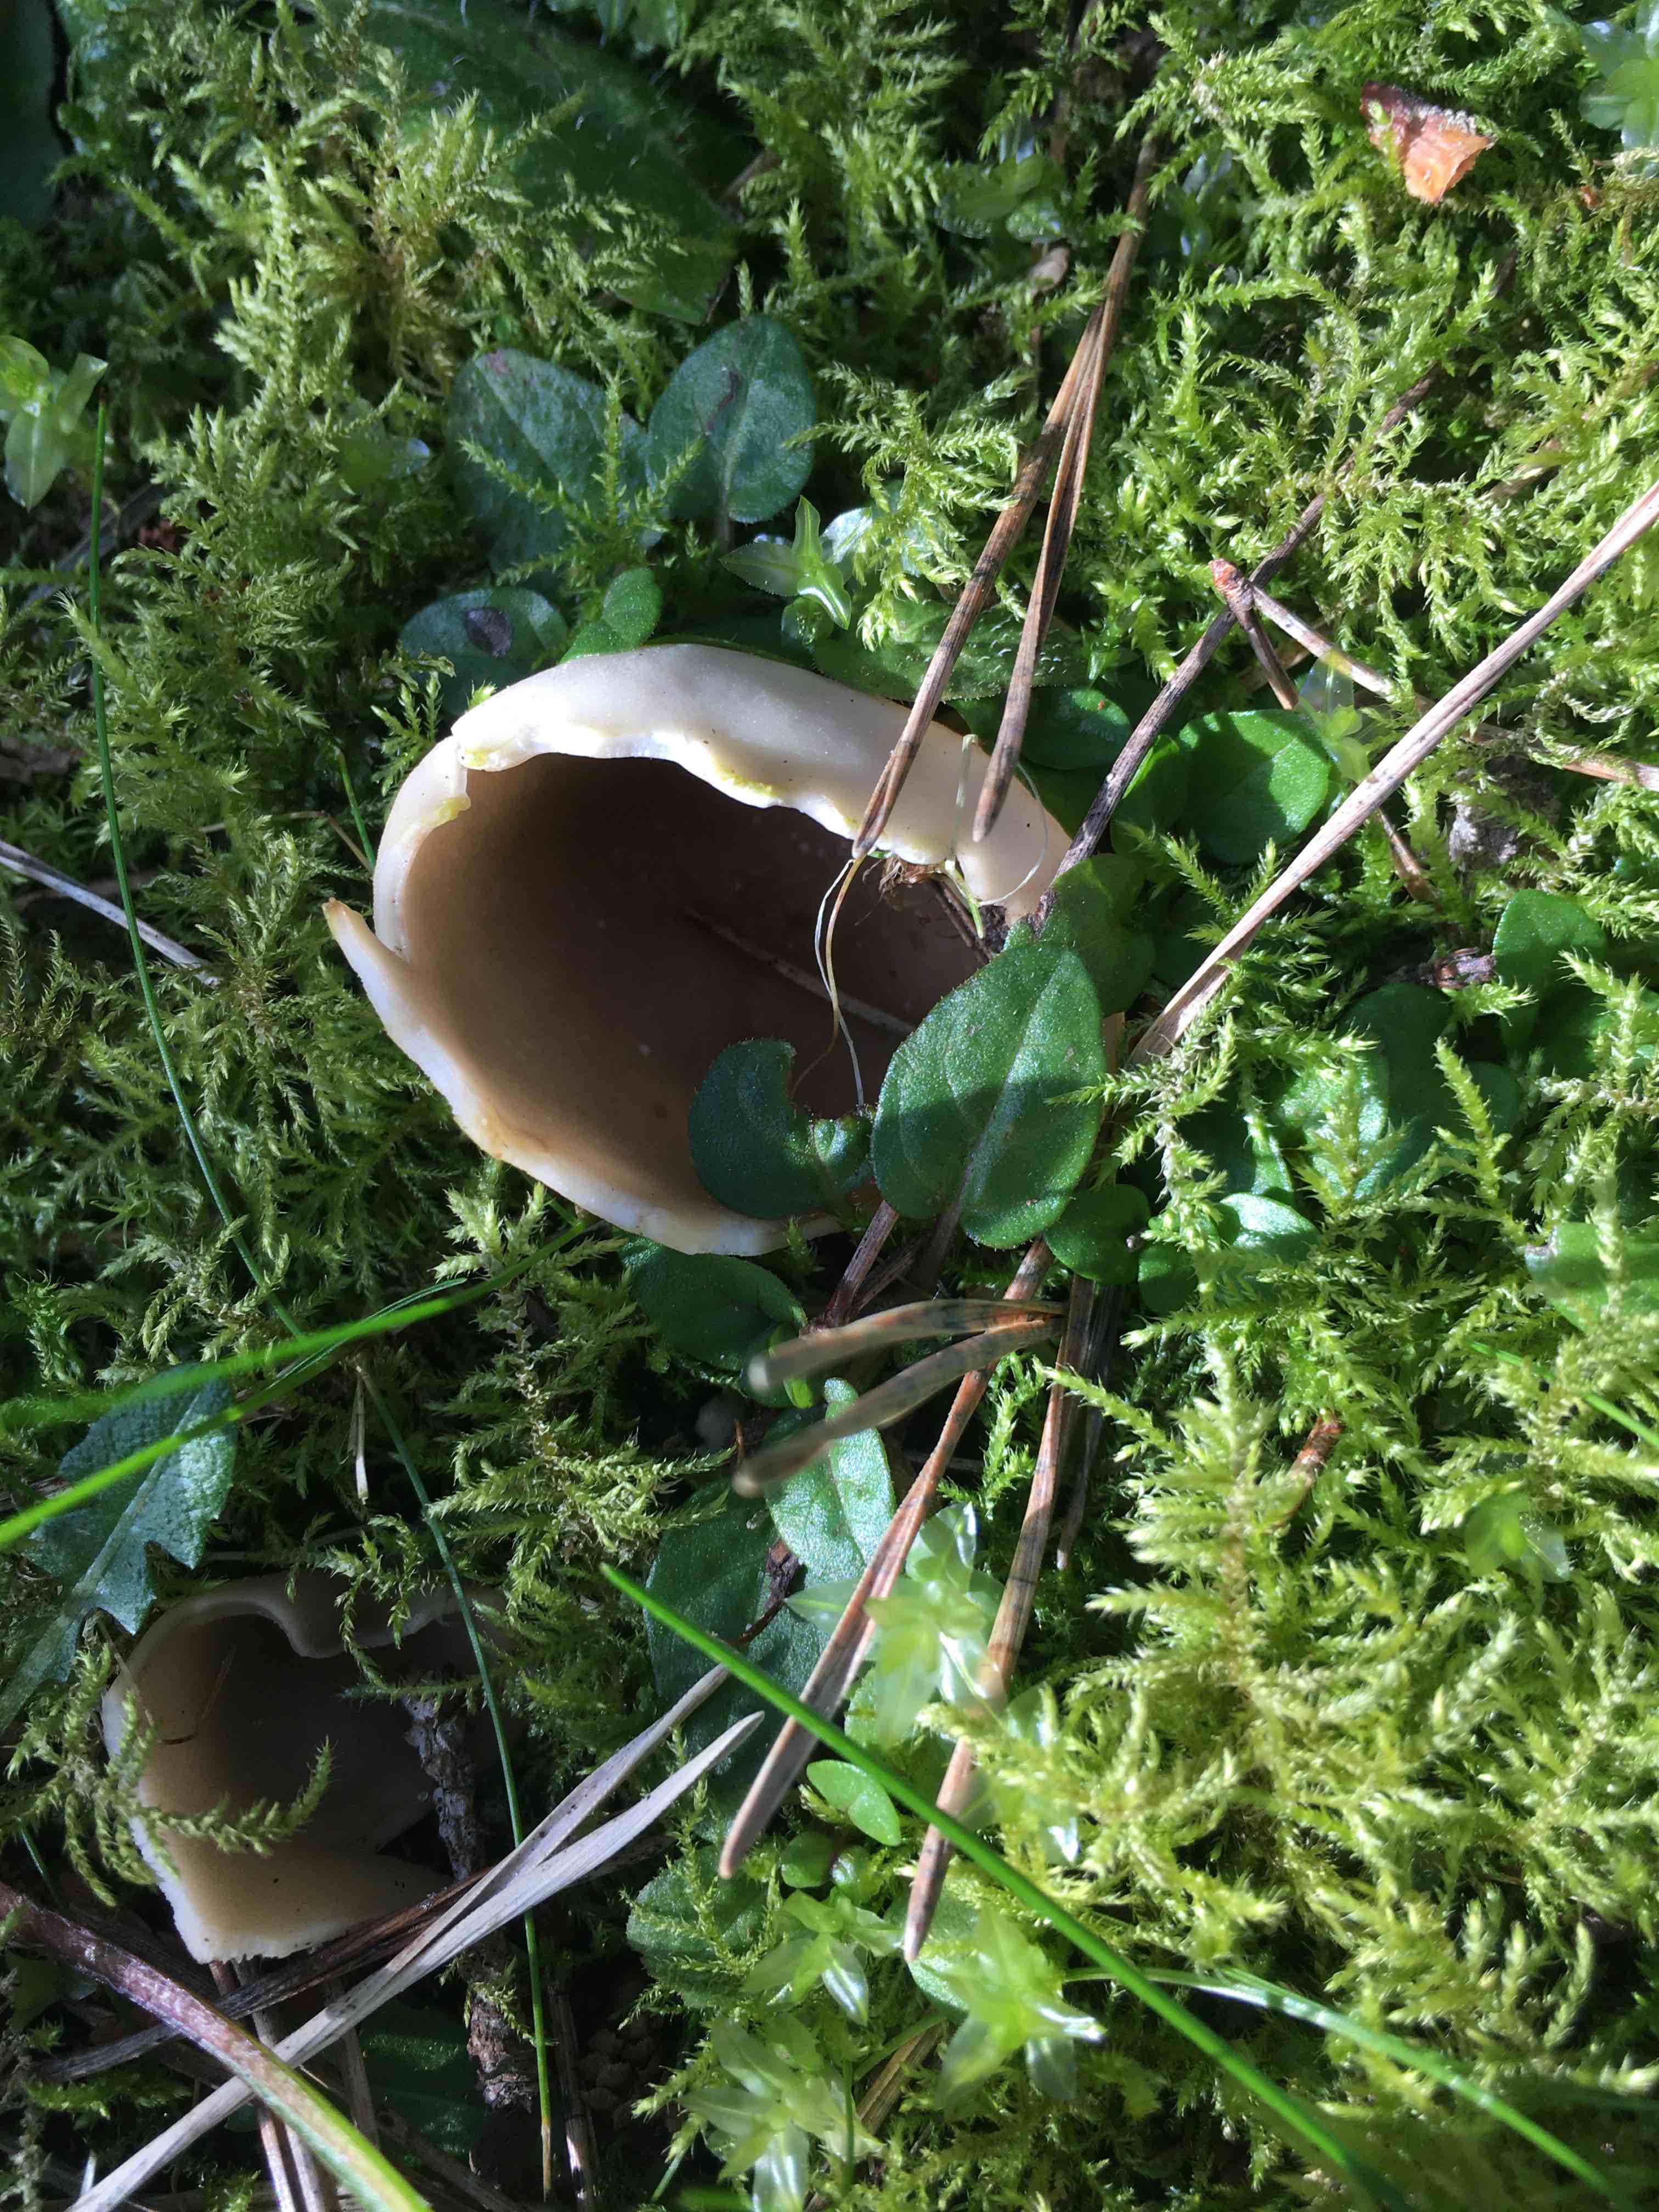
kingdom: Fungi
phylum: Ascomycota
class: Pezizomycetes
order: Pezizales
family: Helvellaceae
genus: Dissingia
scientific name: Dissingia leucomelaena
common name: sorthvid foldhat
